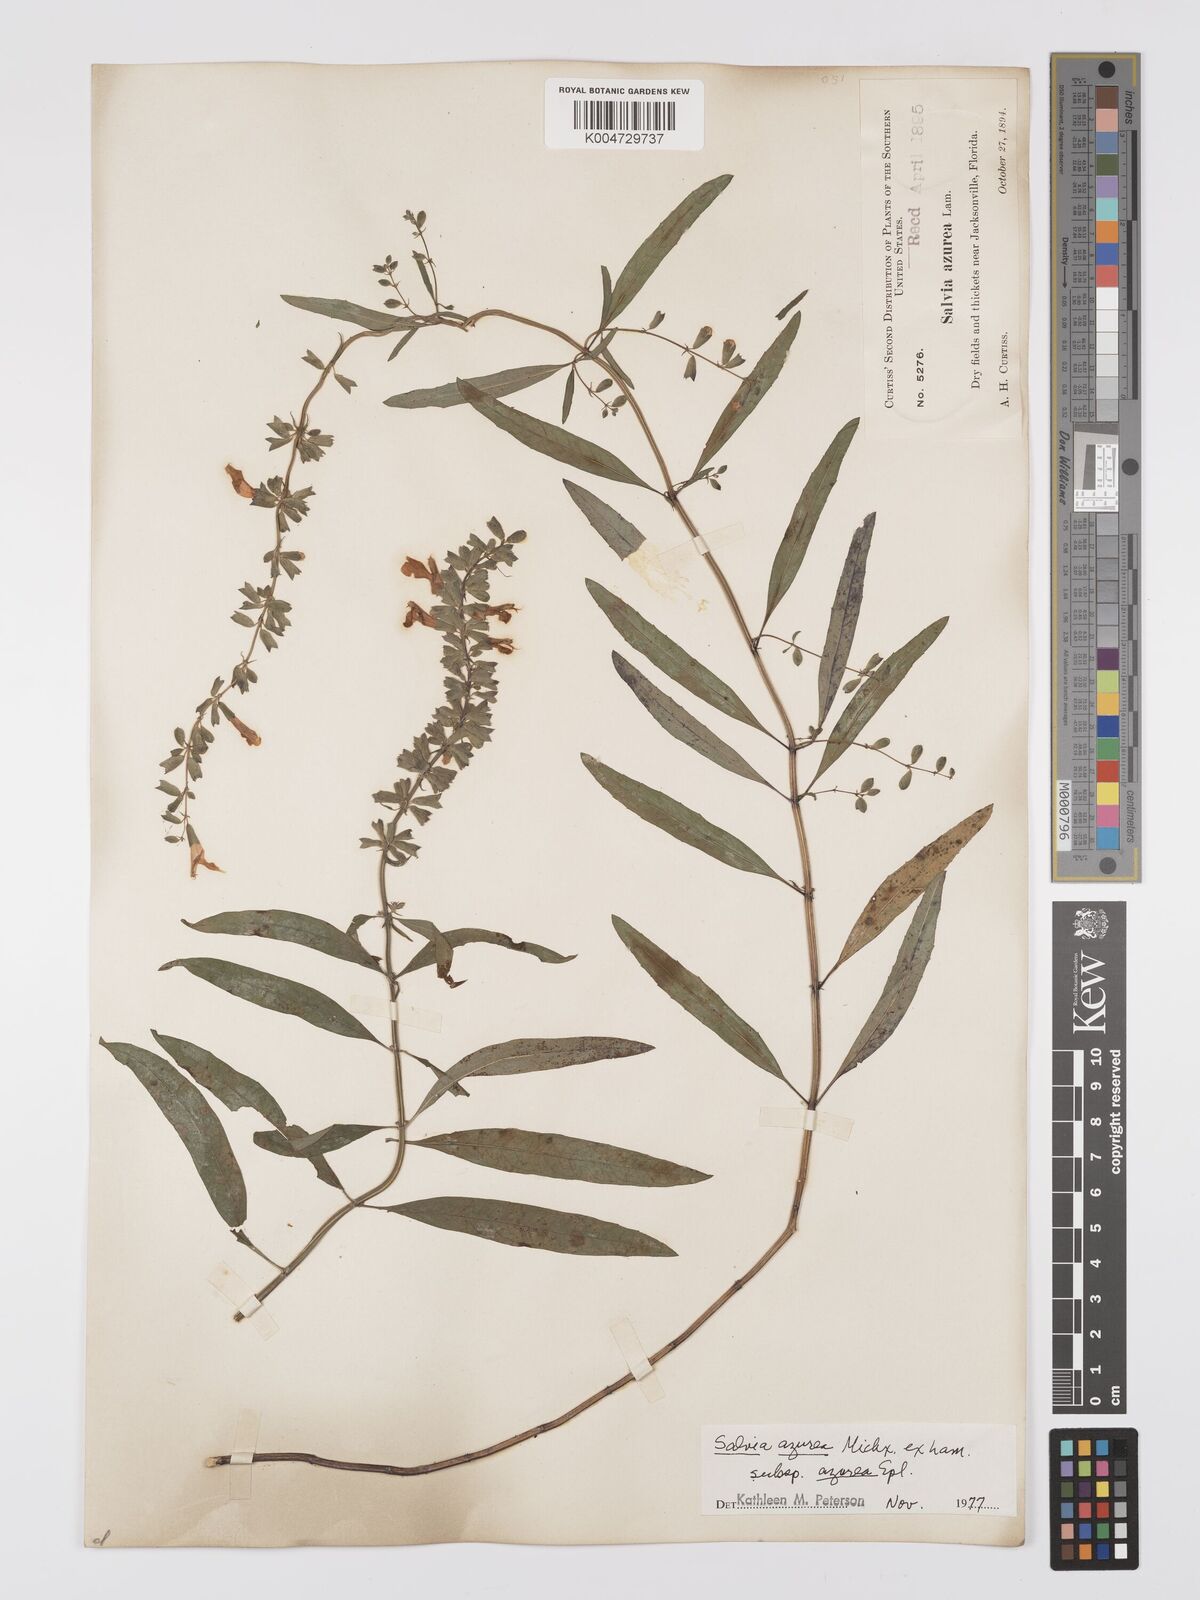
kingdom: Plantae
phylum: Tracheophyta
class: Magnoliopsida
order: Lamiales
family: Lamiaceae
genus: Salvia
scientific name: Salvia azurea
